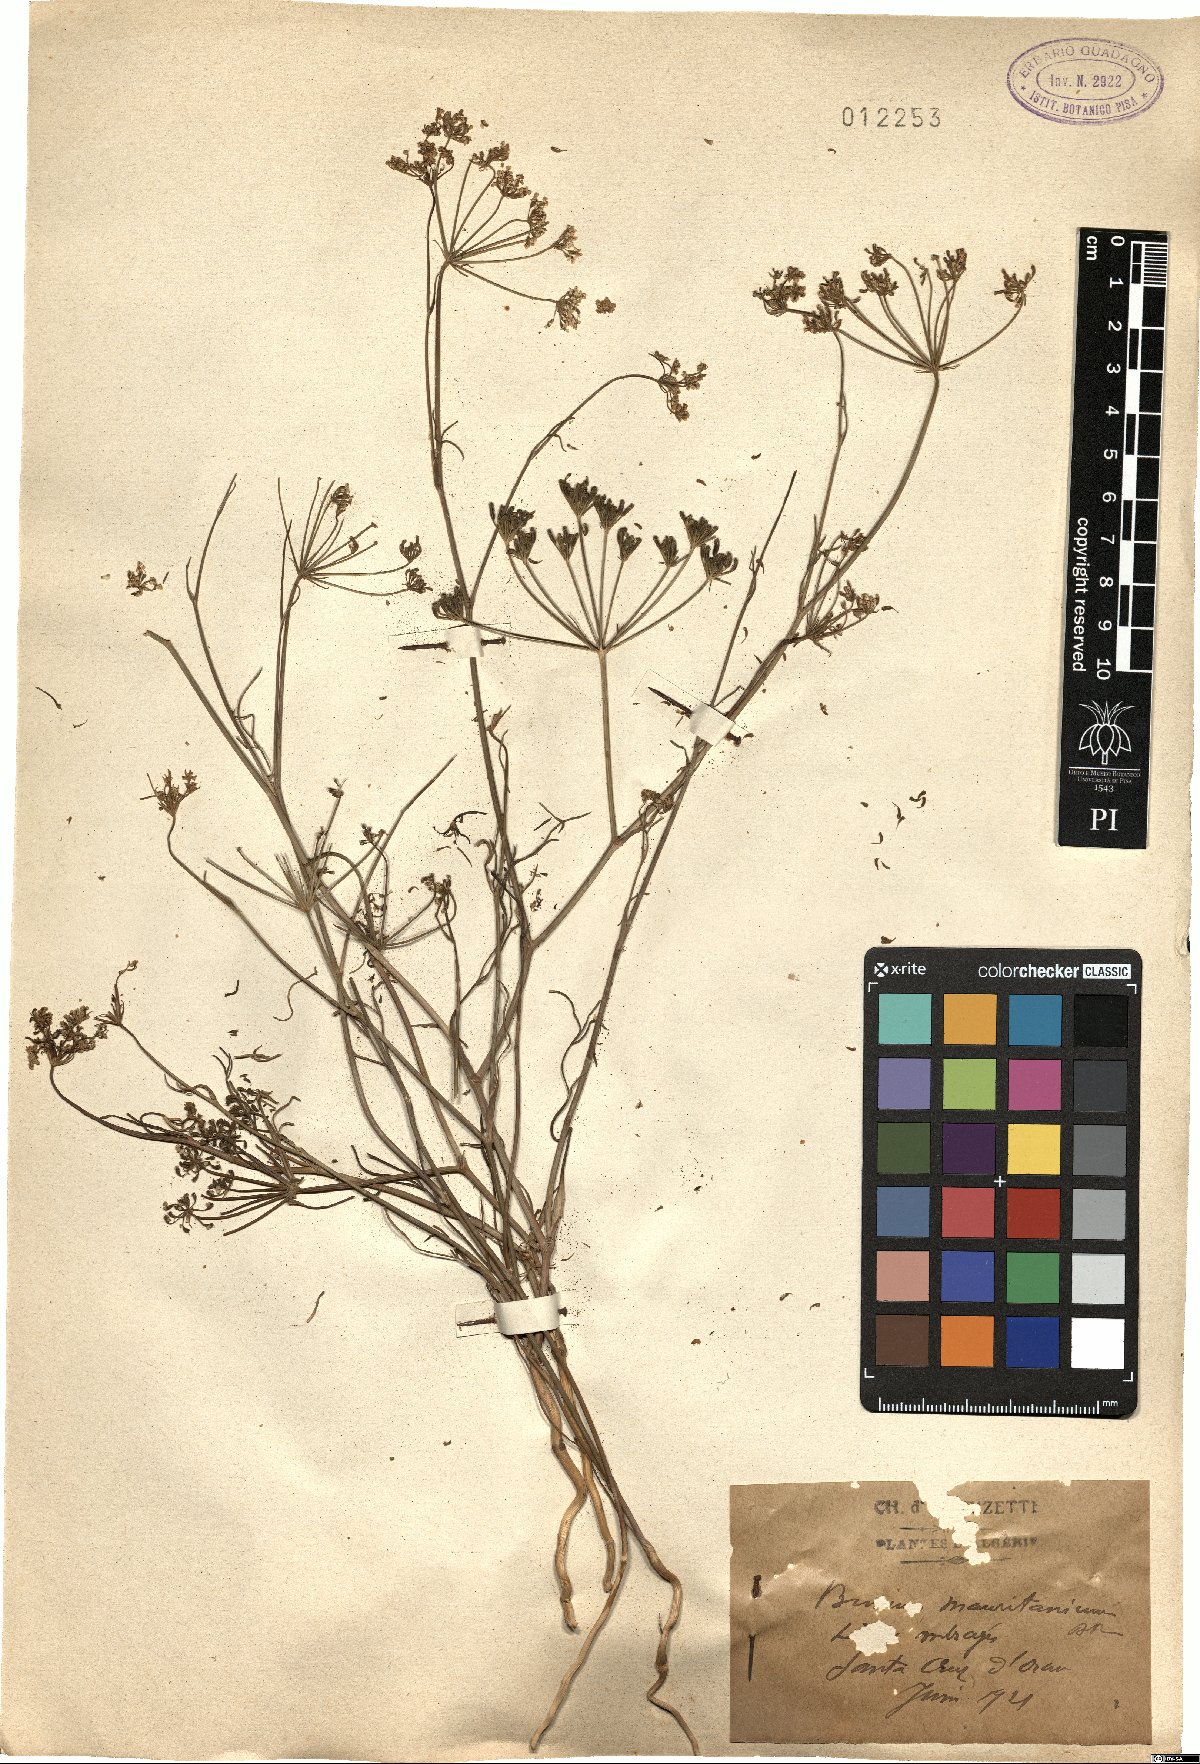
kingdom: Plantae
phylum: Tracheophyta
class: Magnoliopsida
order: Apiales
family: Apiaceae
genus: Bunium
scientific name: Bunium fontanesii
